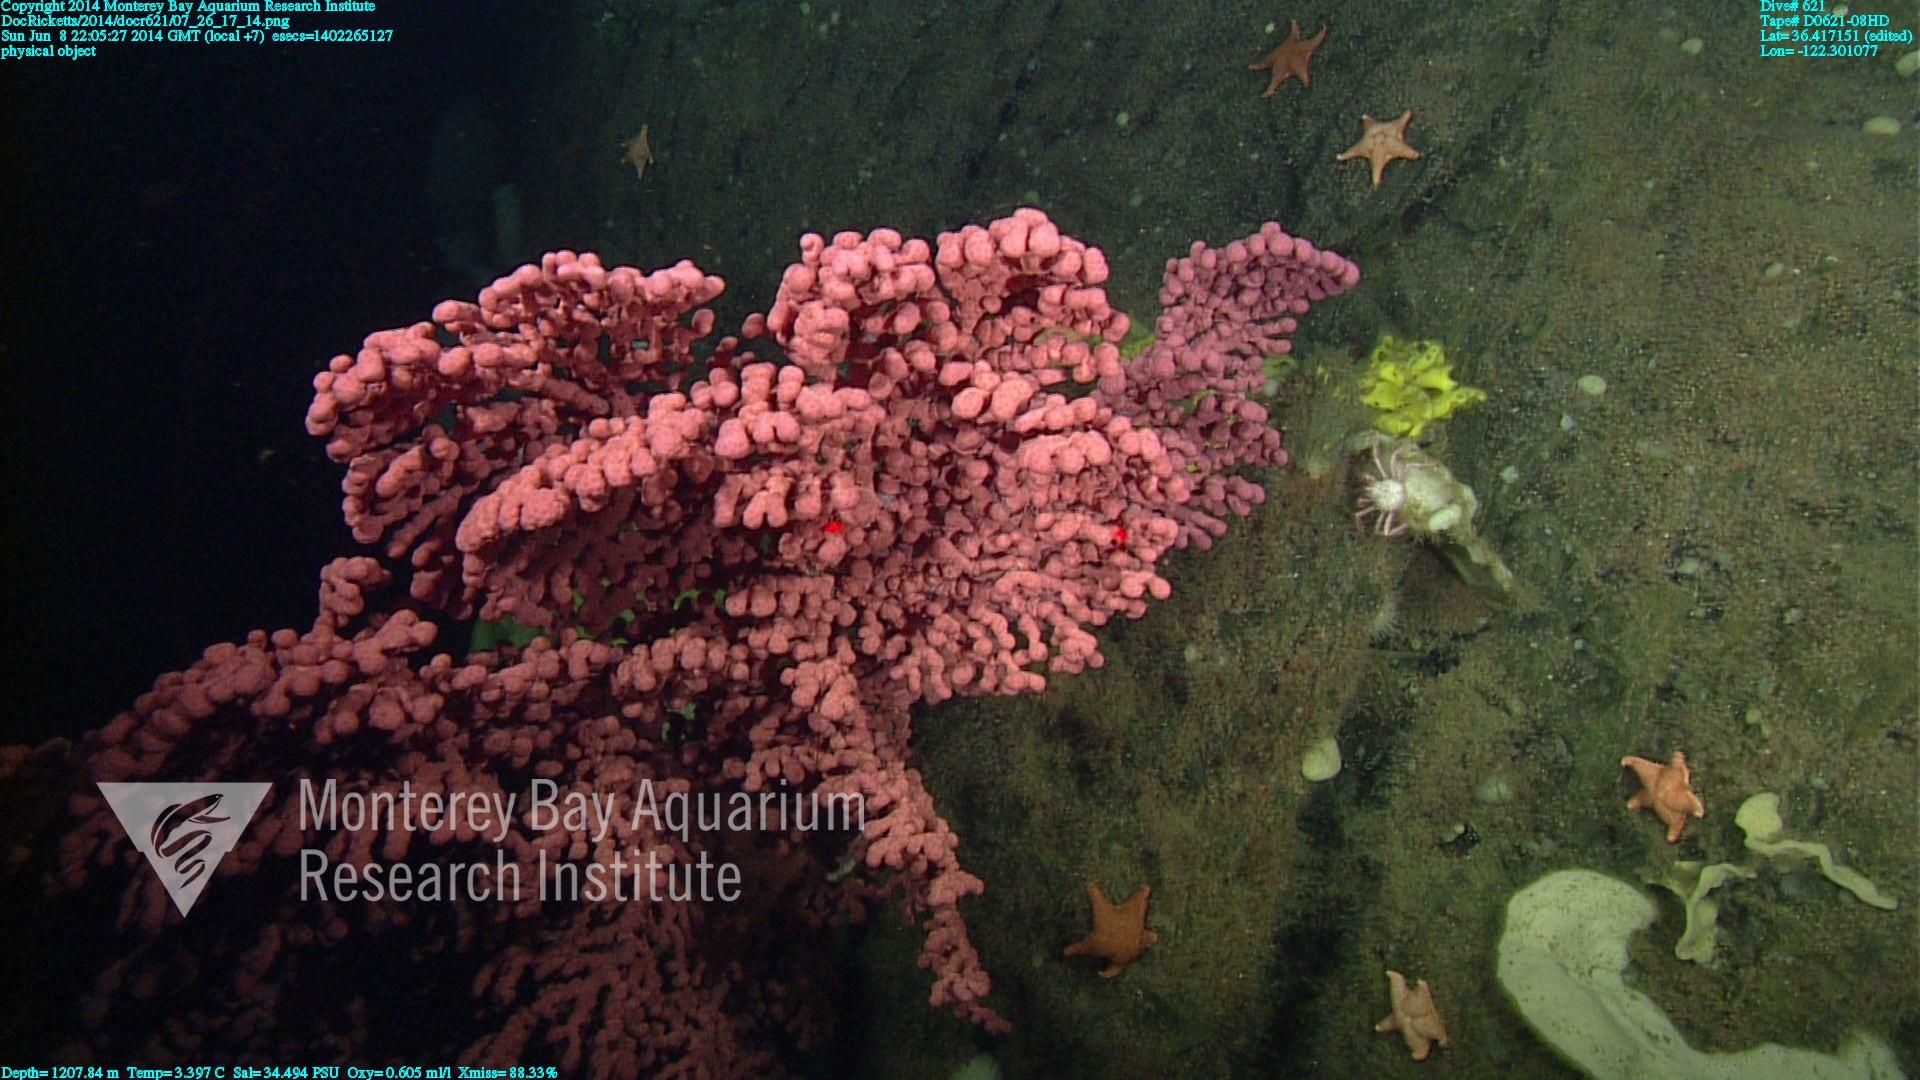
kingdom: Animalia
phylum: Cnidaria
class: Anthozoa
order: Scleralcyonacea
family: Coralliidae
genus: Paragorgia
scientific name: Paragorgia arborea
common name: Bubble gum coral
